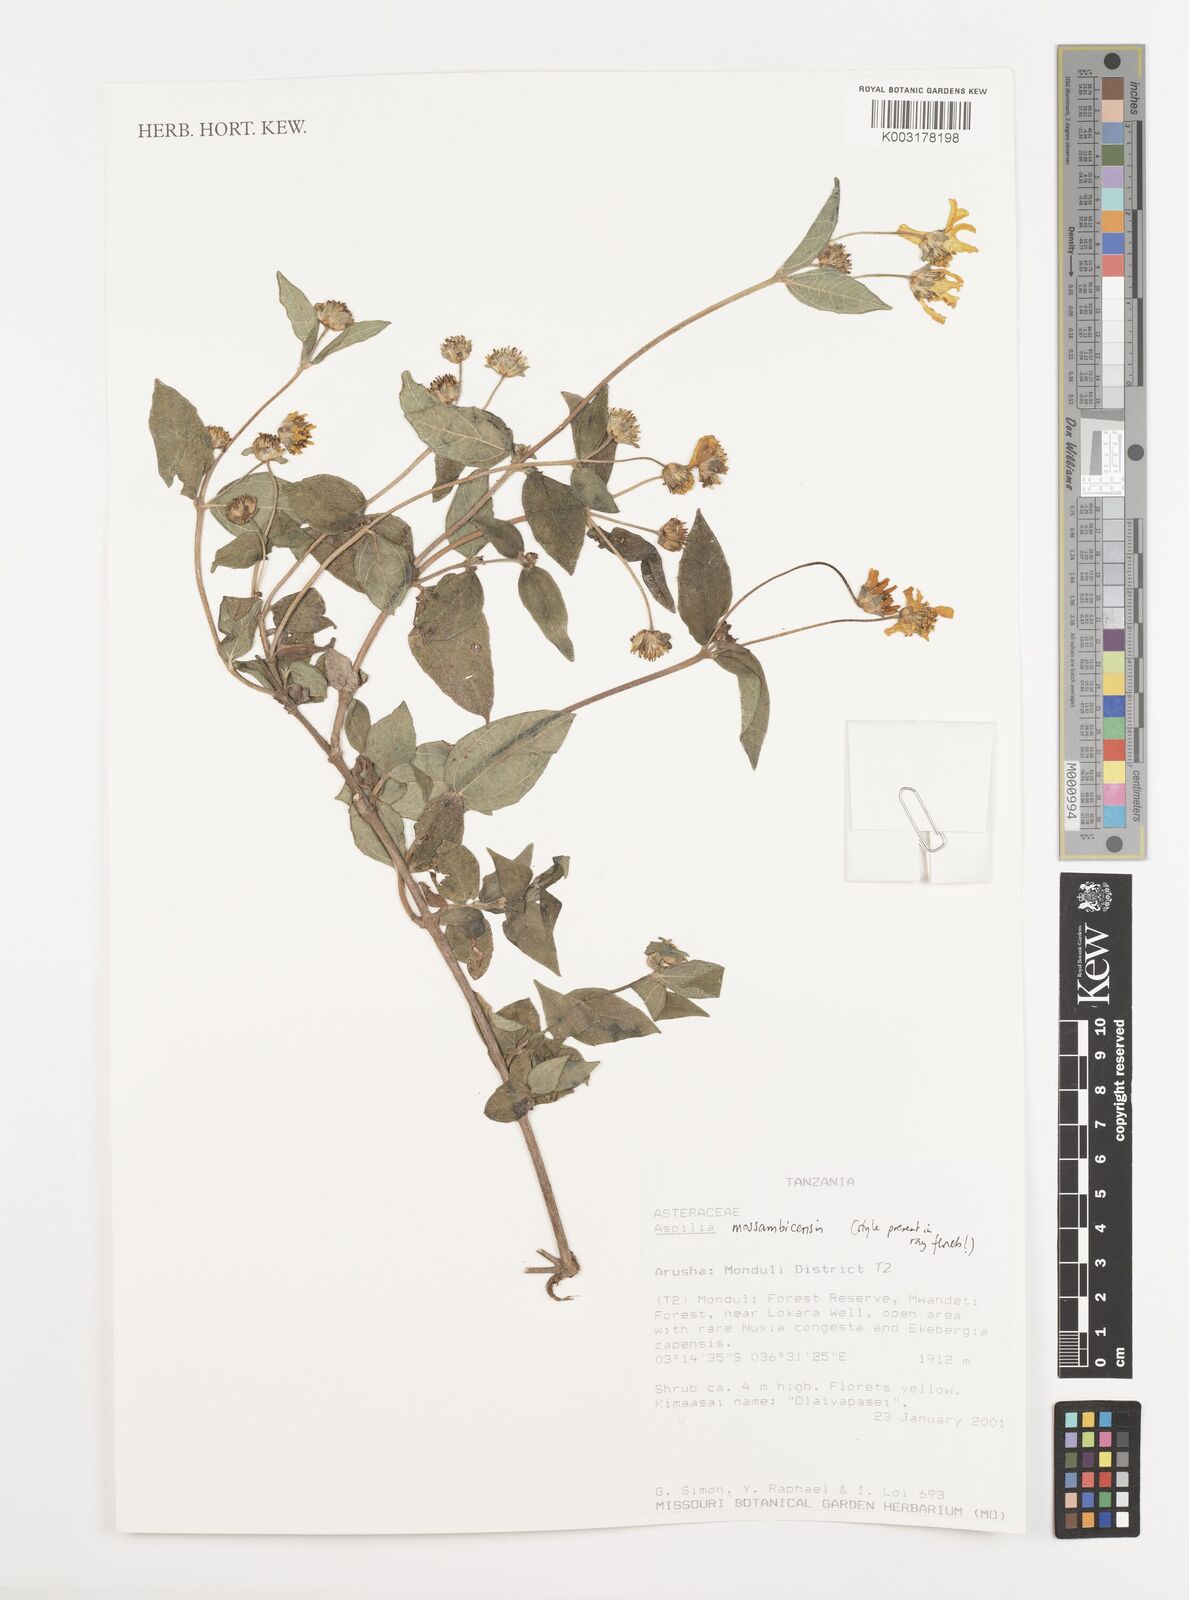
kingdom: Plantae
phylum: Tracheophyta
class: Magnoliopsida
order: Asterales
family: Asteraceae
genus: Aspilia
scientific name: Aspilia mossambicensis
